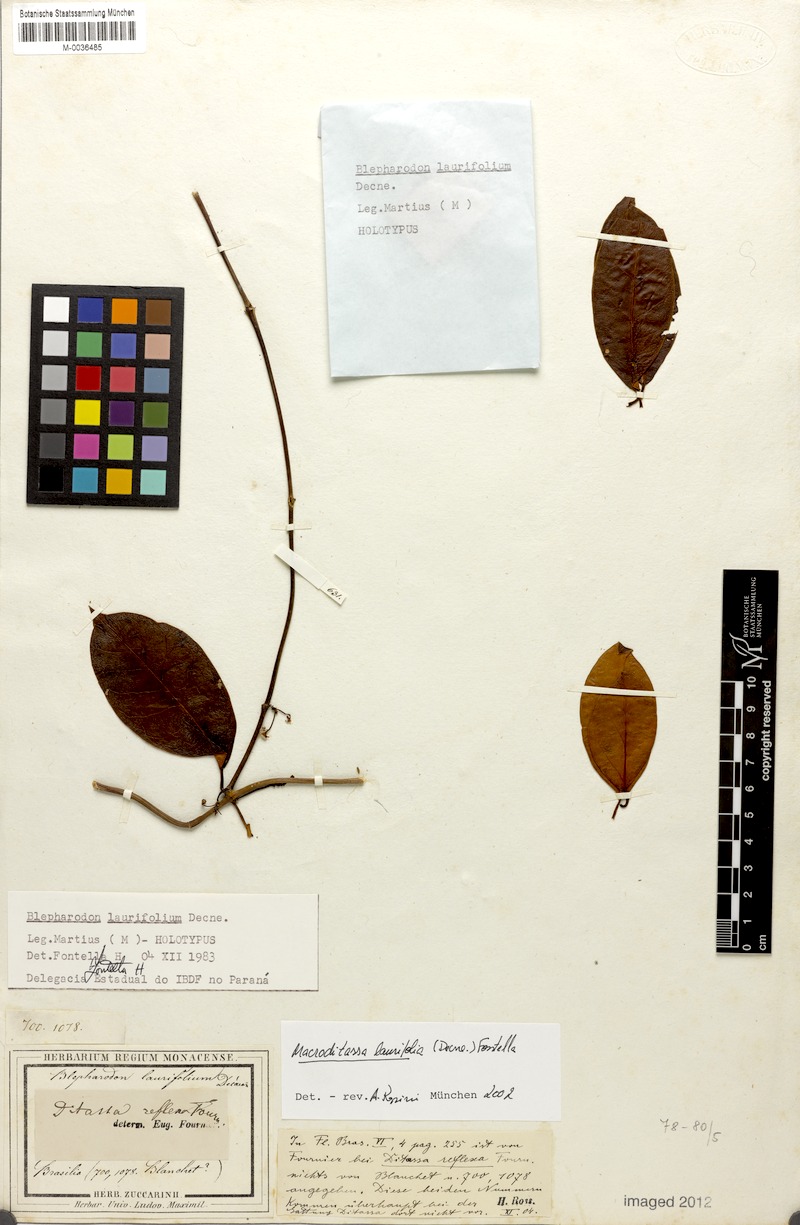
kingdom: Plantae
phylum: Tracheophyta
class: Magnoliopsida
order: Gentianales
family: Apocynaceae
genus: Nephradenia
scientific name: Nephradenia laurifolia
